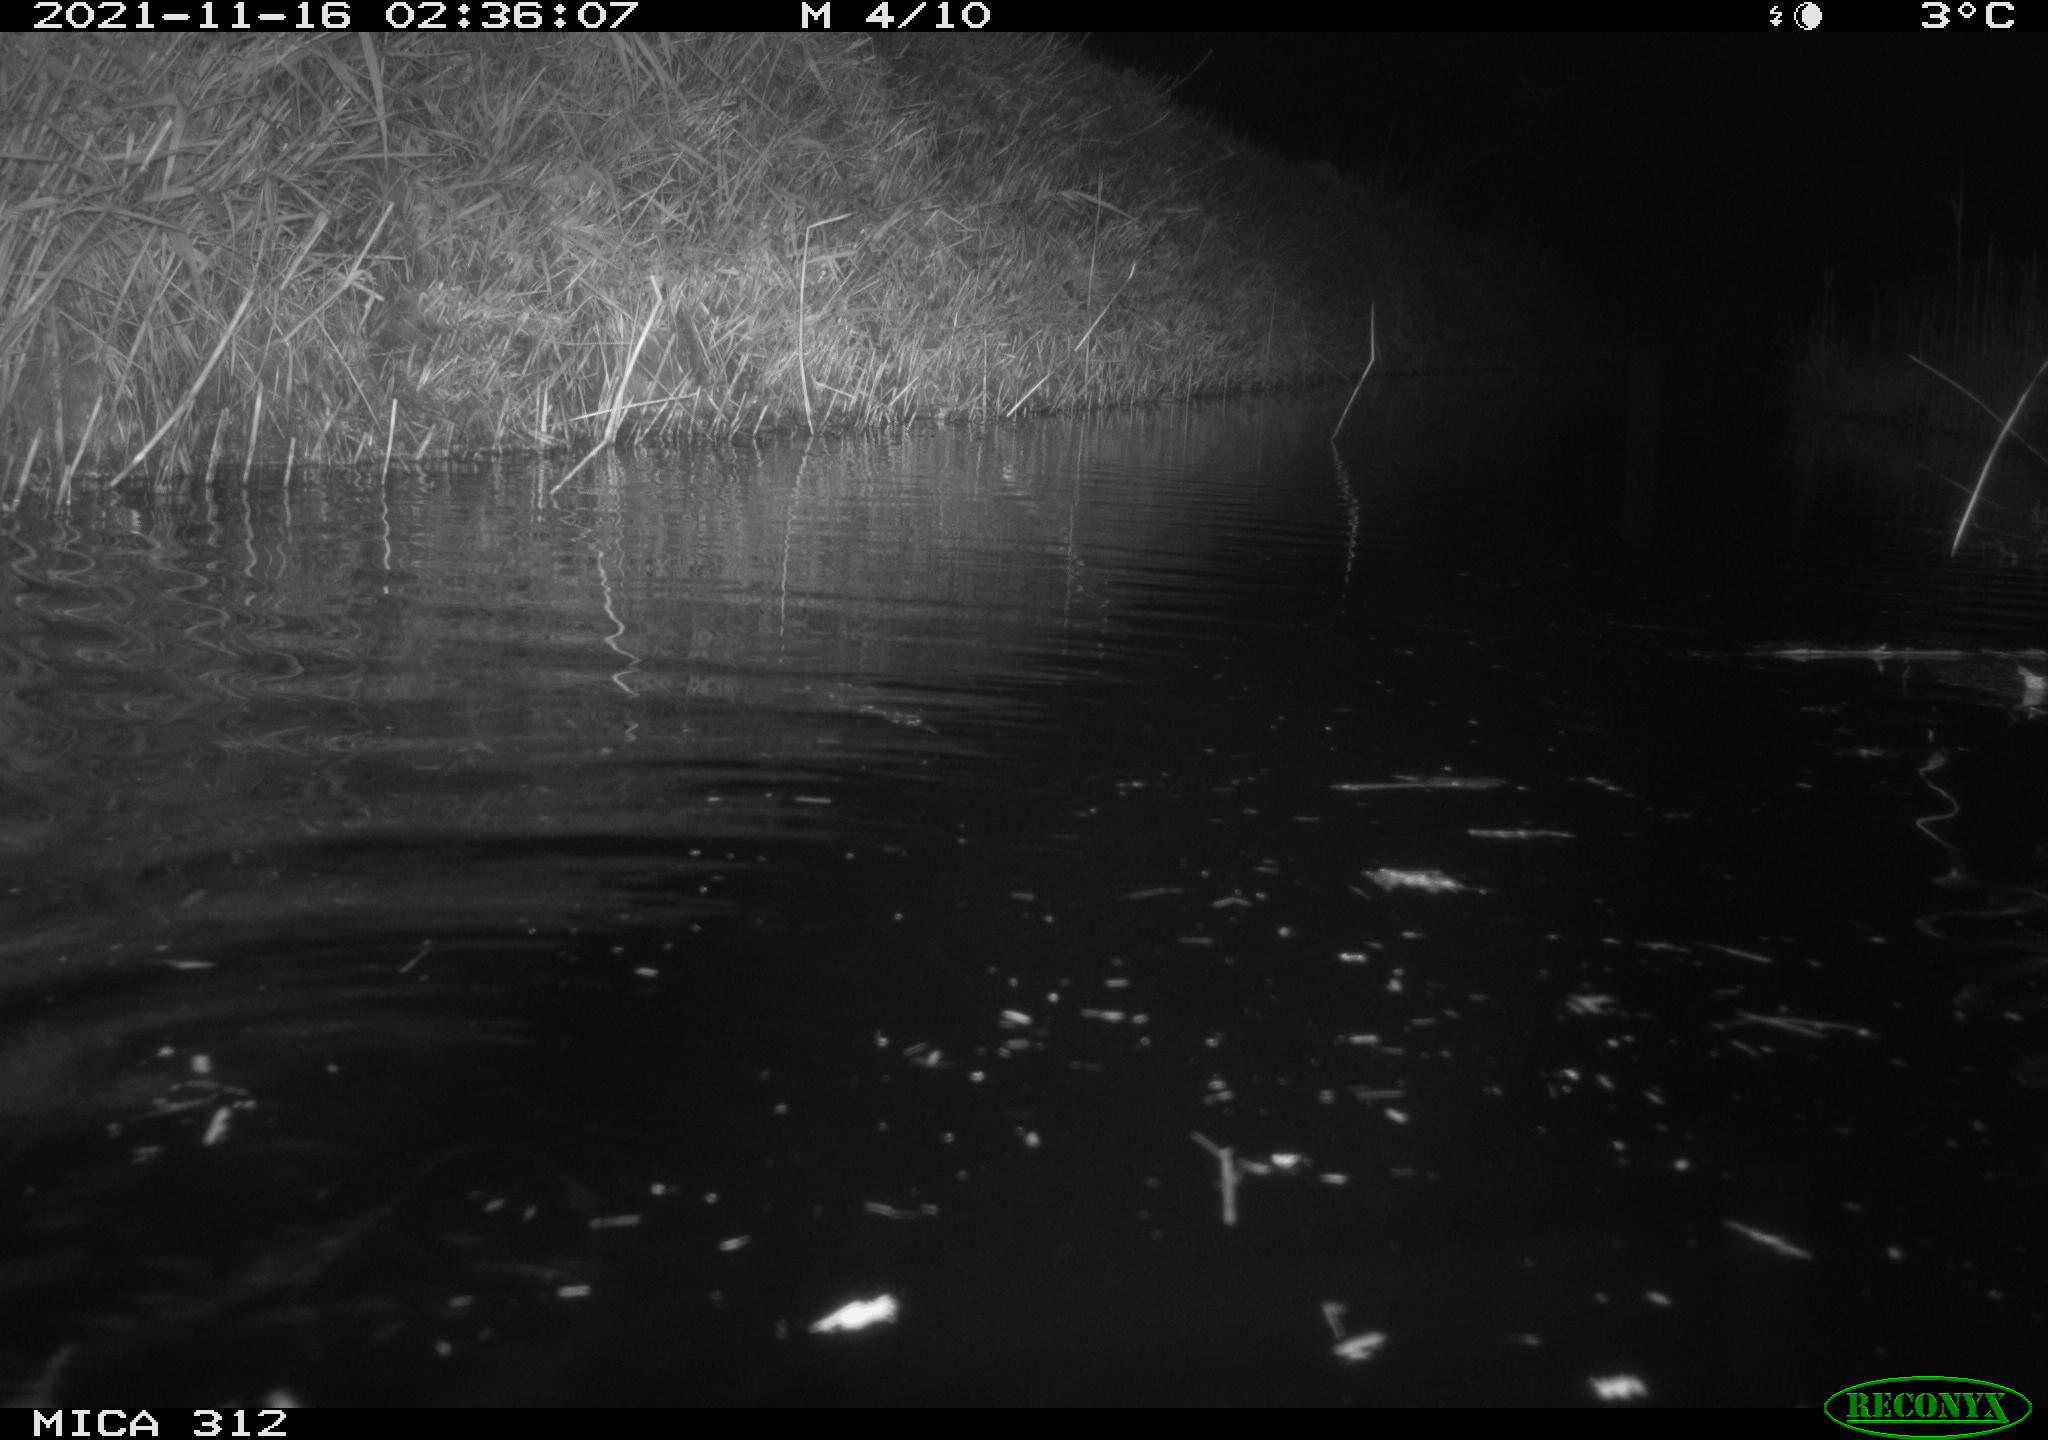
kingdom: Animalia
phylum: Chordata
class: Mammalia
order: Rodentia
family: Muridae
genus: Rattus
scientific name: Rattus norvegicus
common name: Brown rat
